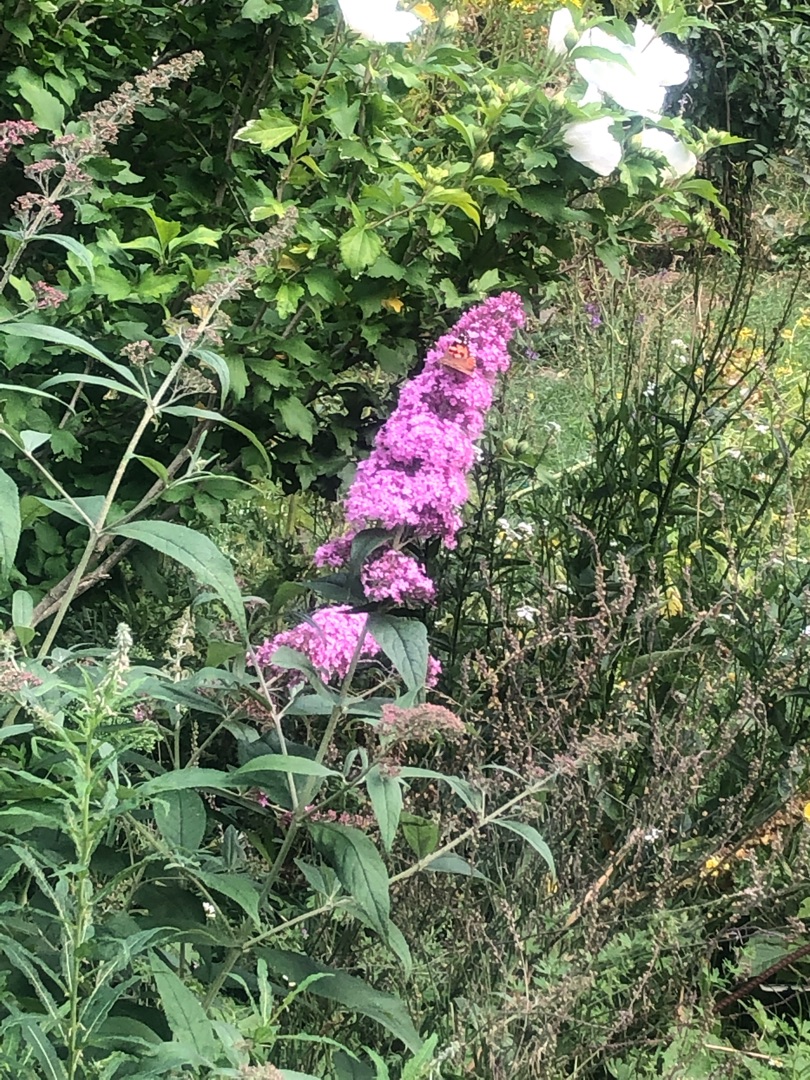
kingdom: Animalia
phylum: Arthropoda
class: Insecta
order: Lepidoptera
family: Nymphalidae
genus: Vanessa
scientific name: Vanessa cardui
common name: Tidselsommerfugl
